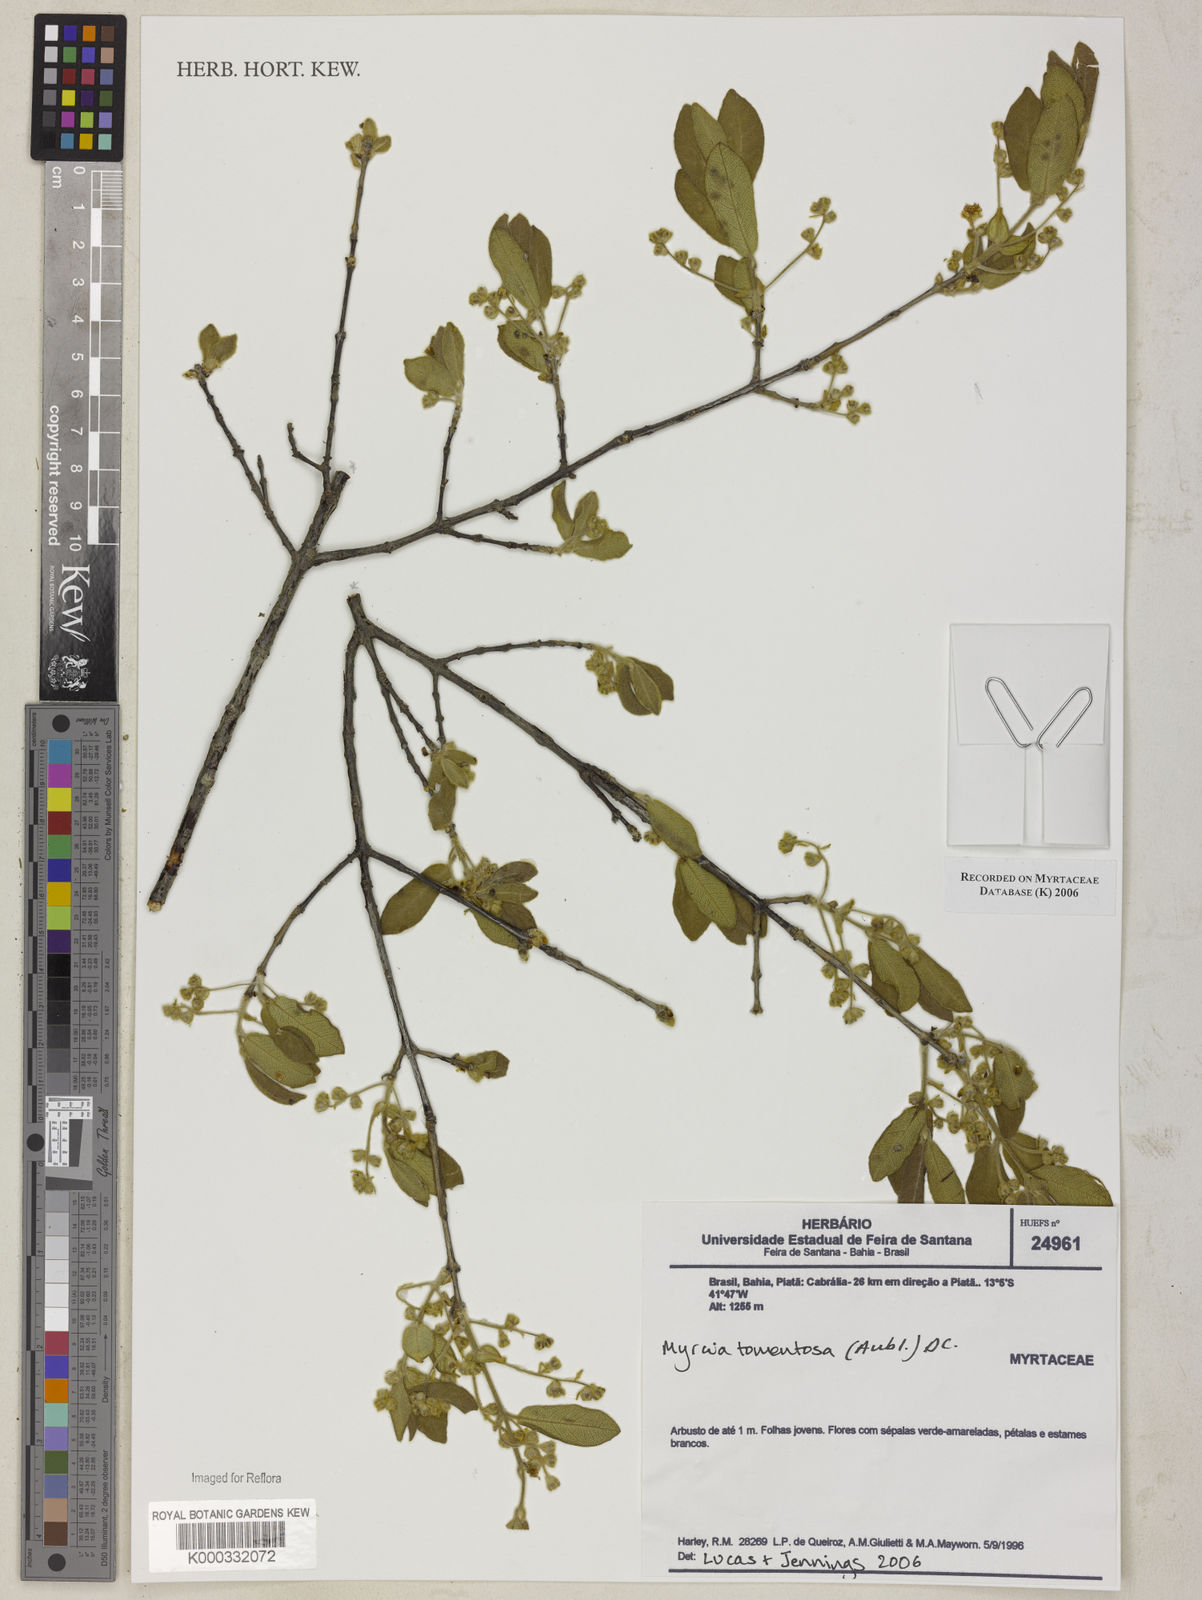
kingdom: Plantae
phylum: Tracheophyta
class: Magnoliopsida
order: Myrtales
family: Myrtaceae
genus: Myrcia
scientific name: Myrcia tomentosa
